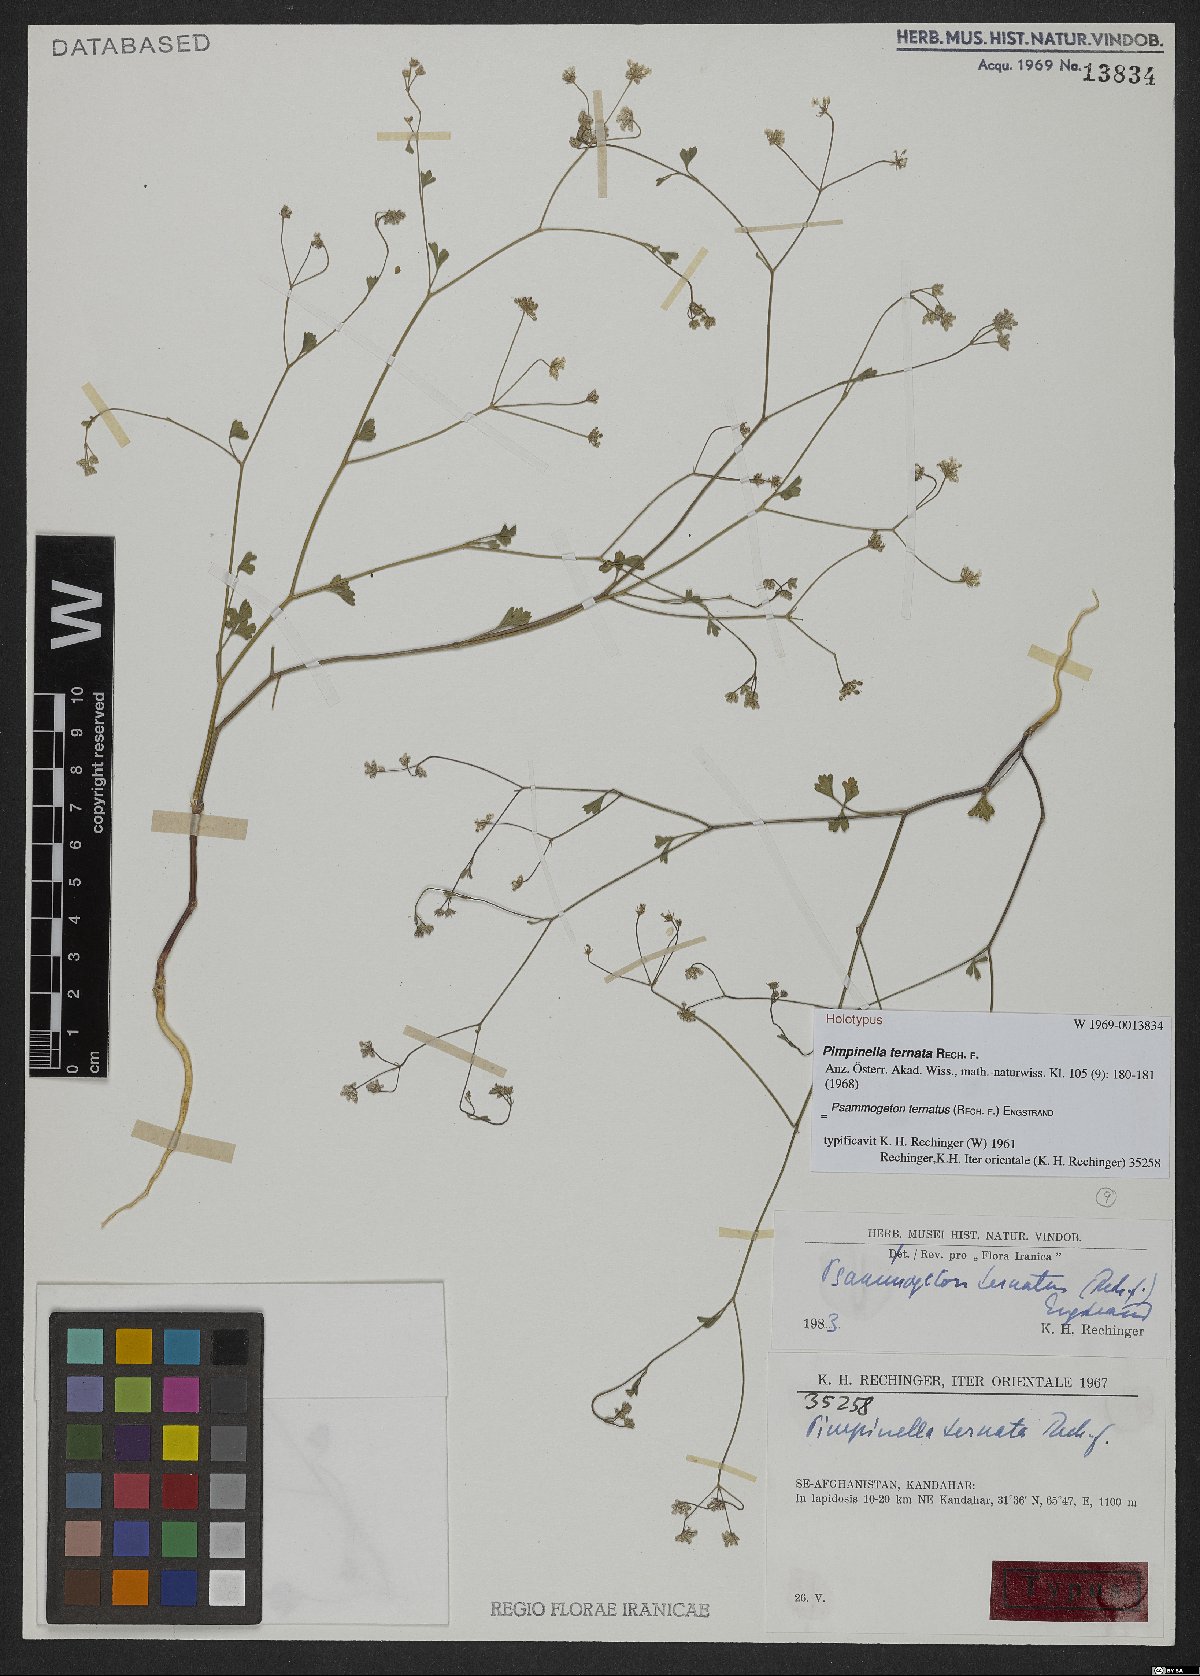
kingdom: Plantae
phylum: Tracheophyta
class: Magnoliopsida
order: Apiales
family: Apiaceae
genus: Psammogeton
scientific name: Psammogeton ternatus
